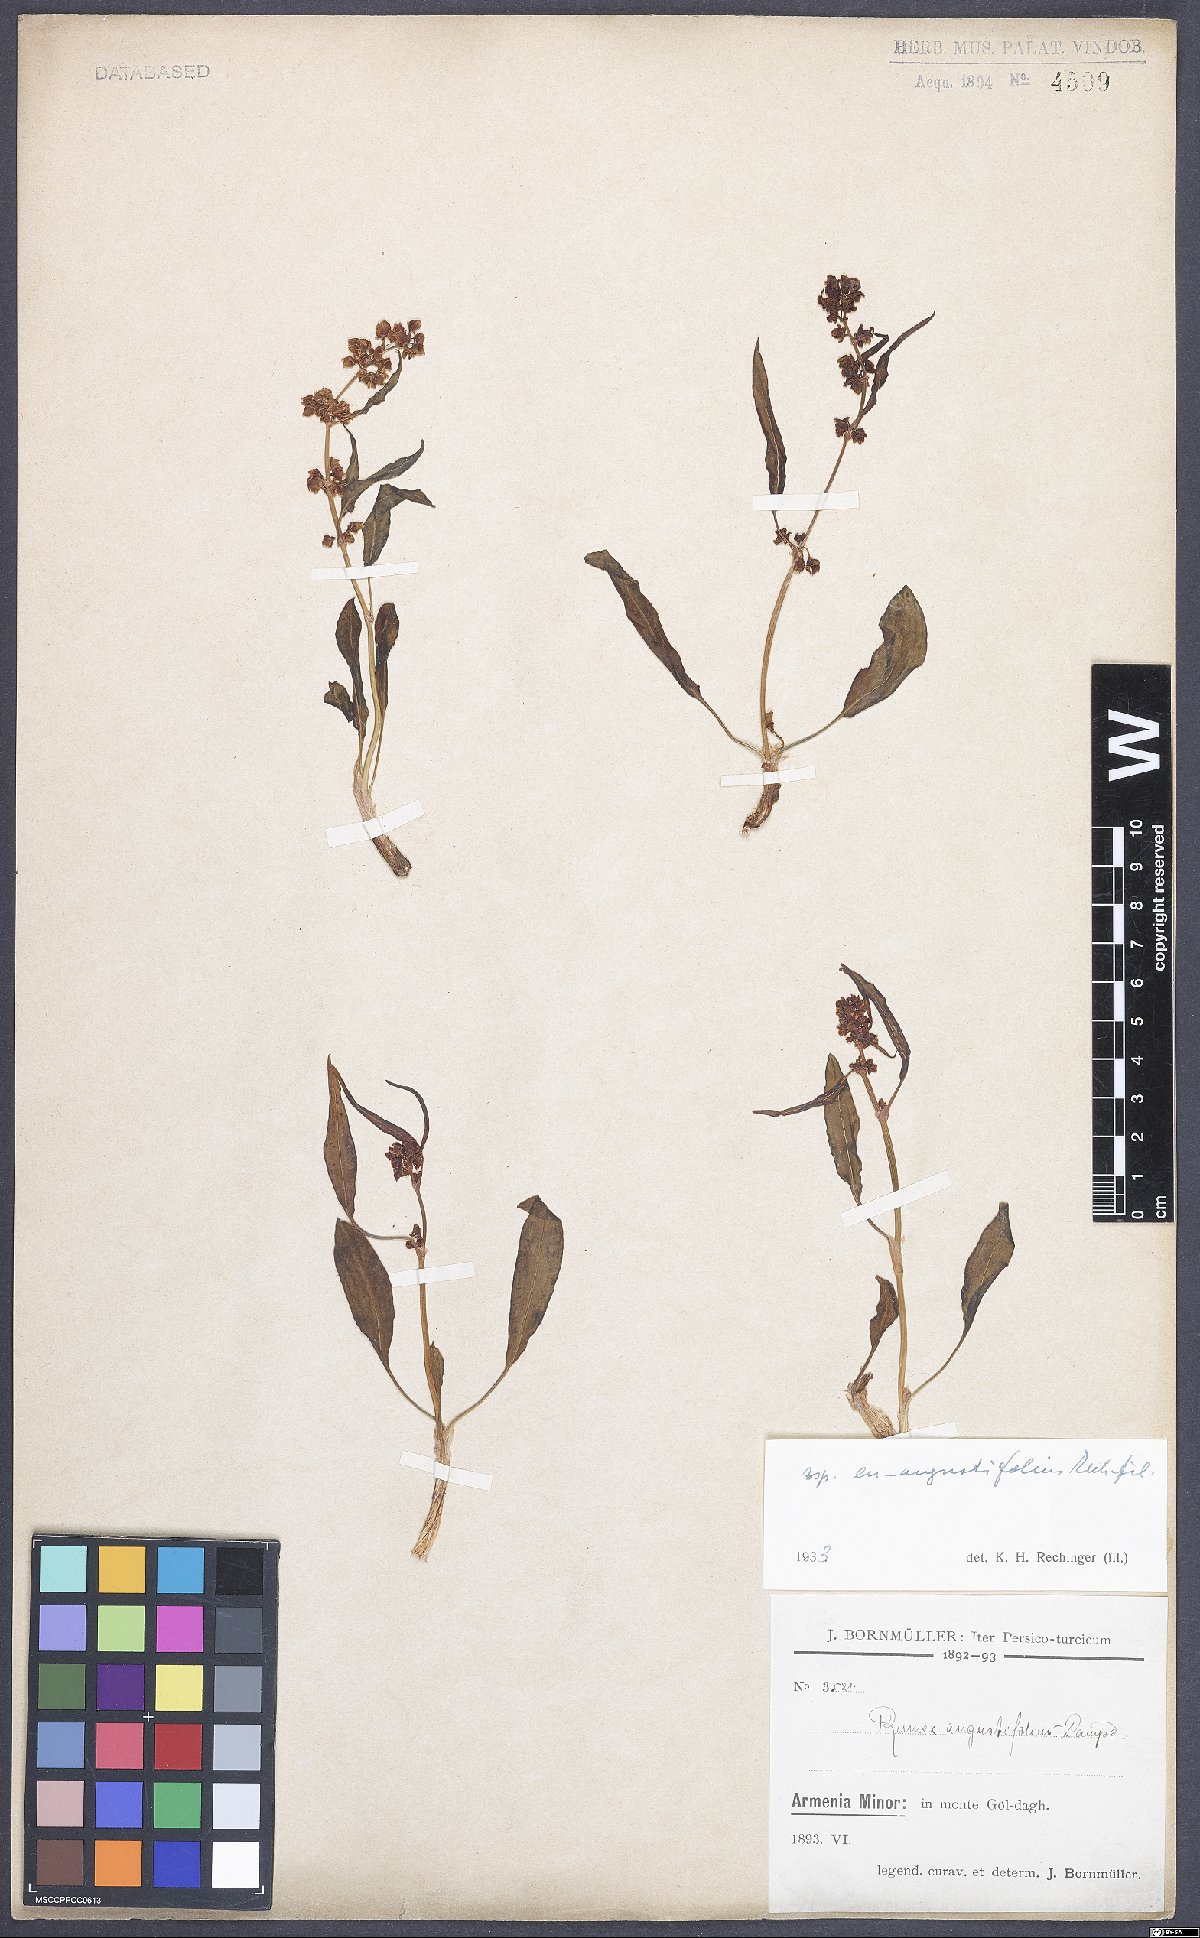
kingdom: Plantae
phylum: Tracheophyta
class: Magnoliopsida
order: Caryophyllales
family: Polygonaceae
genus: Rumex
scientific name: Rumex angustifolius
